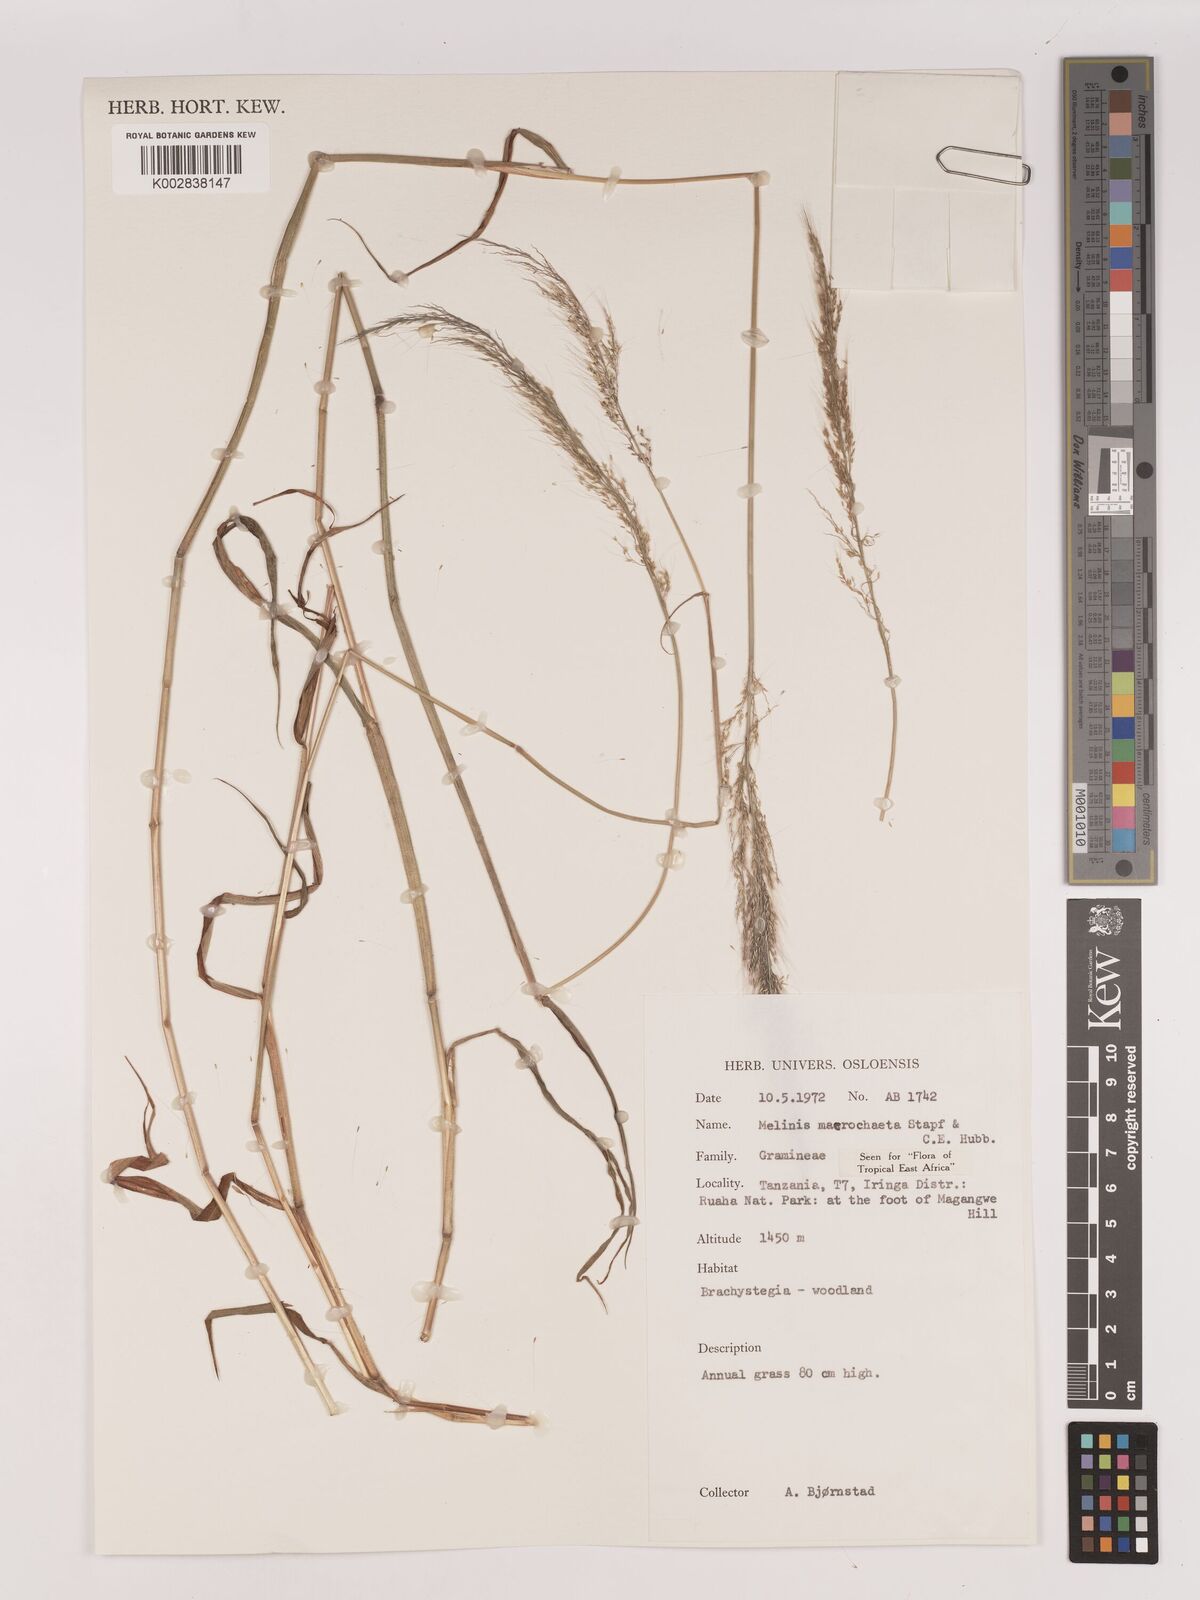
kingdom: Plantae
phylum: Tracheophyta
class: Liliopsida
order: Poales
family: Poaceae
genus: Melinis
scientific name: Melinis macrochaeta
